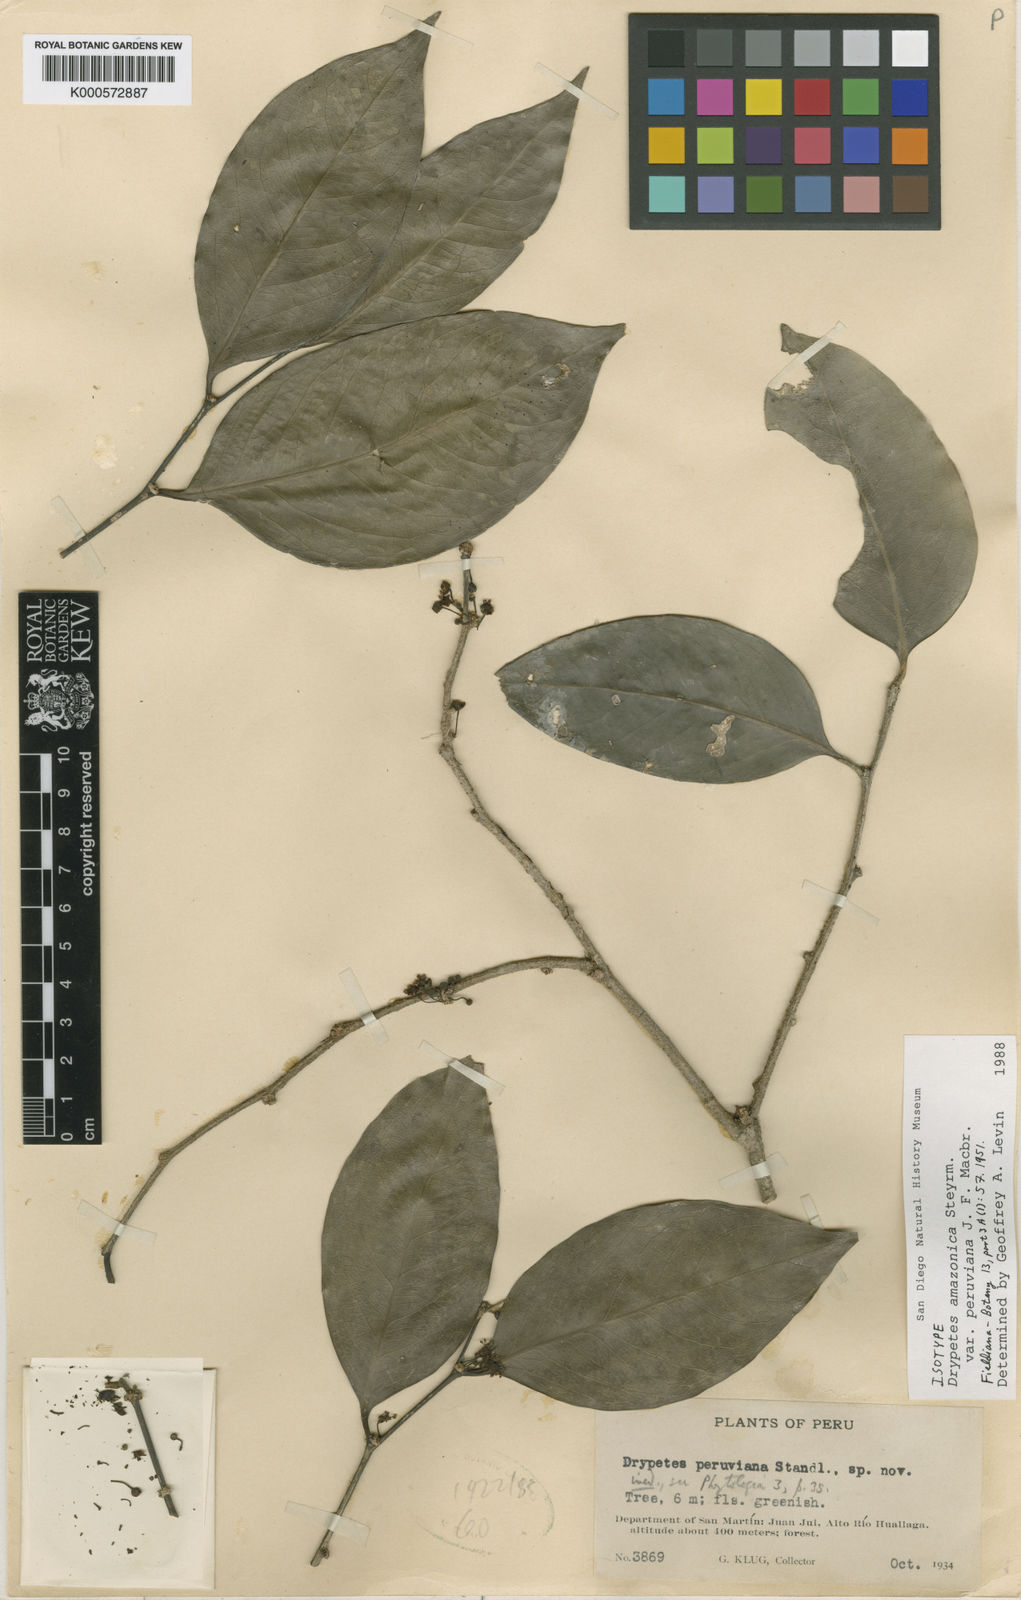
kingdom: Plantae
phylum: Tracheophyta
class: Magnoliopsida
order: Malpighiales
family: Putranjivaceae
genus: Drypetes
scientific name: Drypetes amazonica
